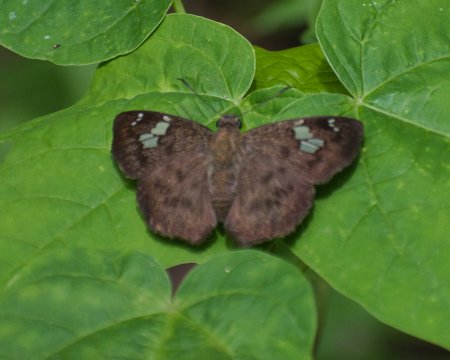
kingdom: Animalia
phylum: Arthropoda
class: Insecta
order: Lepidoptera
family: Hesperiidae
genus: Telemiades
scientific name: Telemiades amphion
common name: Small Telemiades
